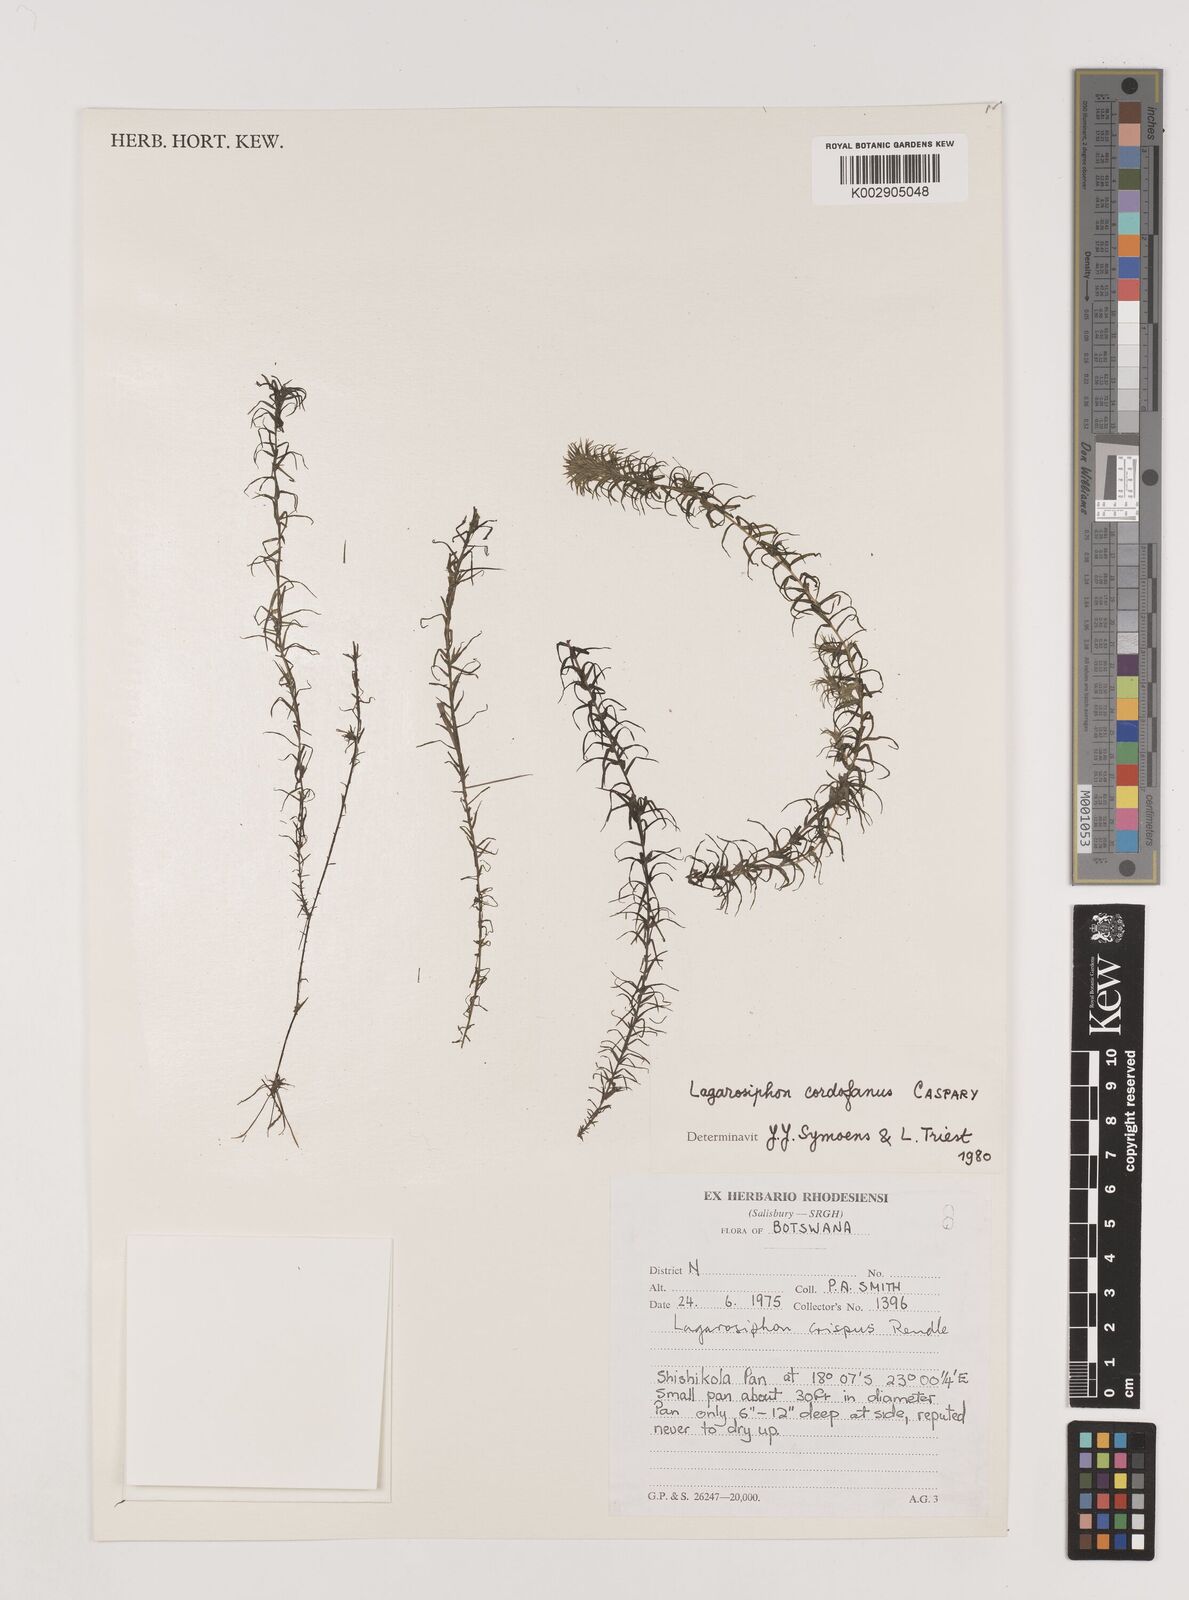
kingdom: Plantae
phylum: Tracheophyta
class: Liliopsida
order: Alismatales
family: Hydrocharitaceae
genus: Lagarosiphon
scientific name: Lagarosiphon cordofanus
